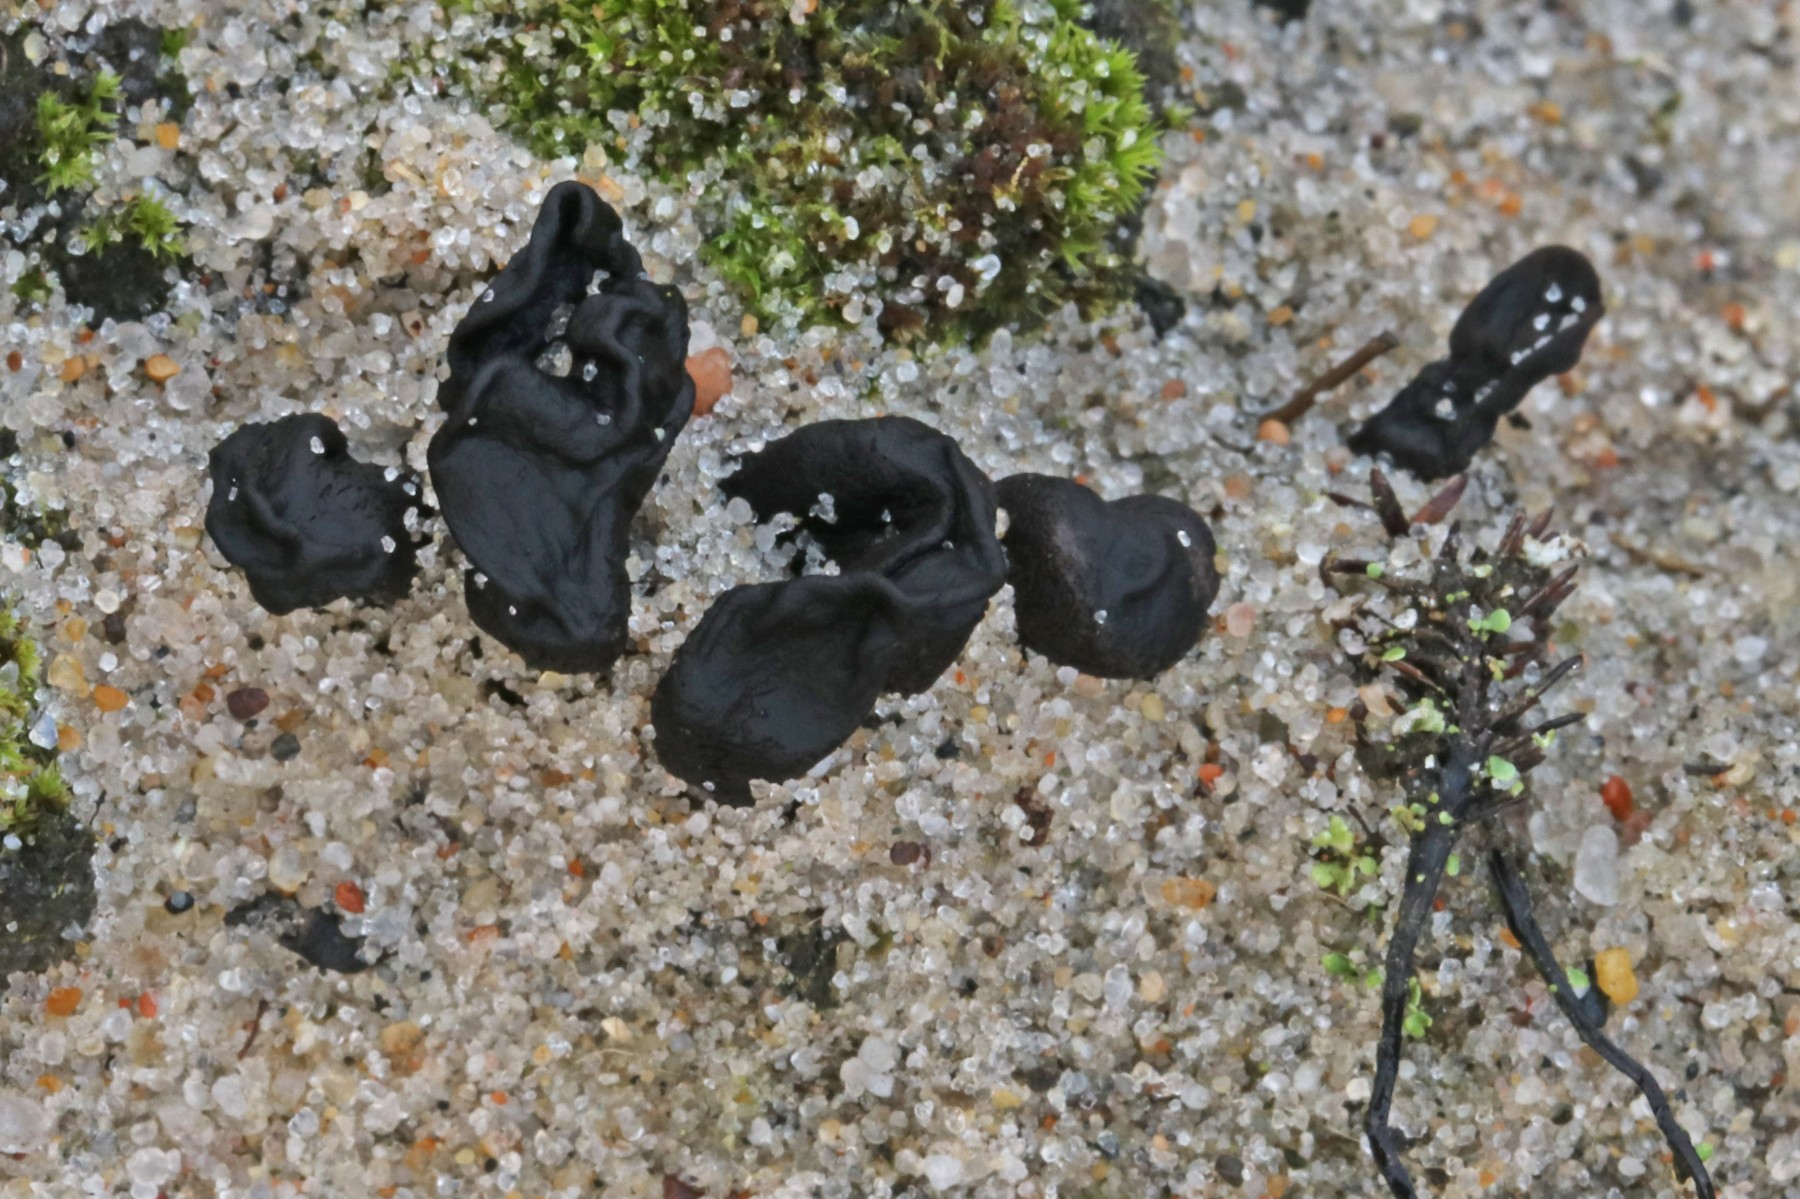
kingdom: Fungi
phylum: Ascomycota
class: Geoglossomycetes
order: Geoglossales
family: Geoglossaceae
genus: Sabuloglossum
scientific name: Sabuloglossum arenarium
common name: klit-jordtunge
